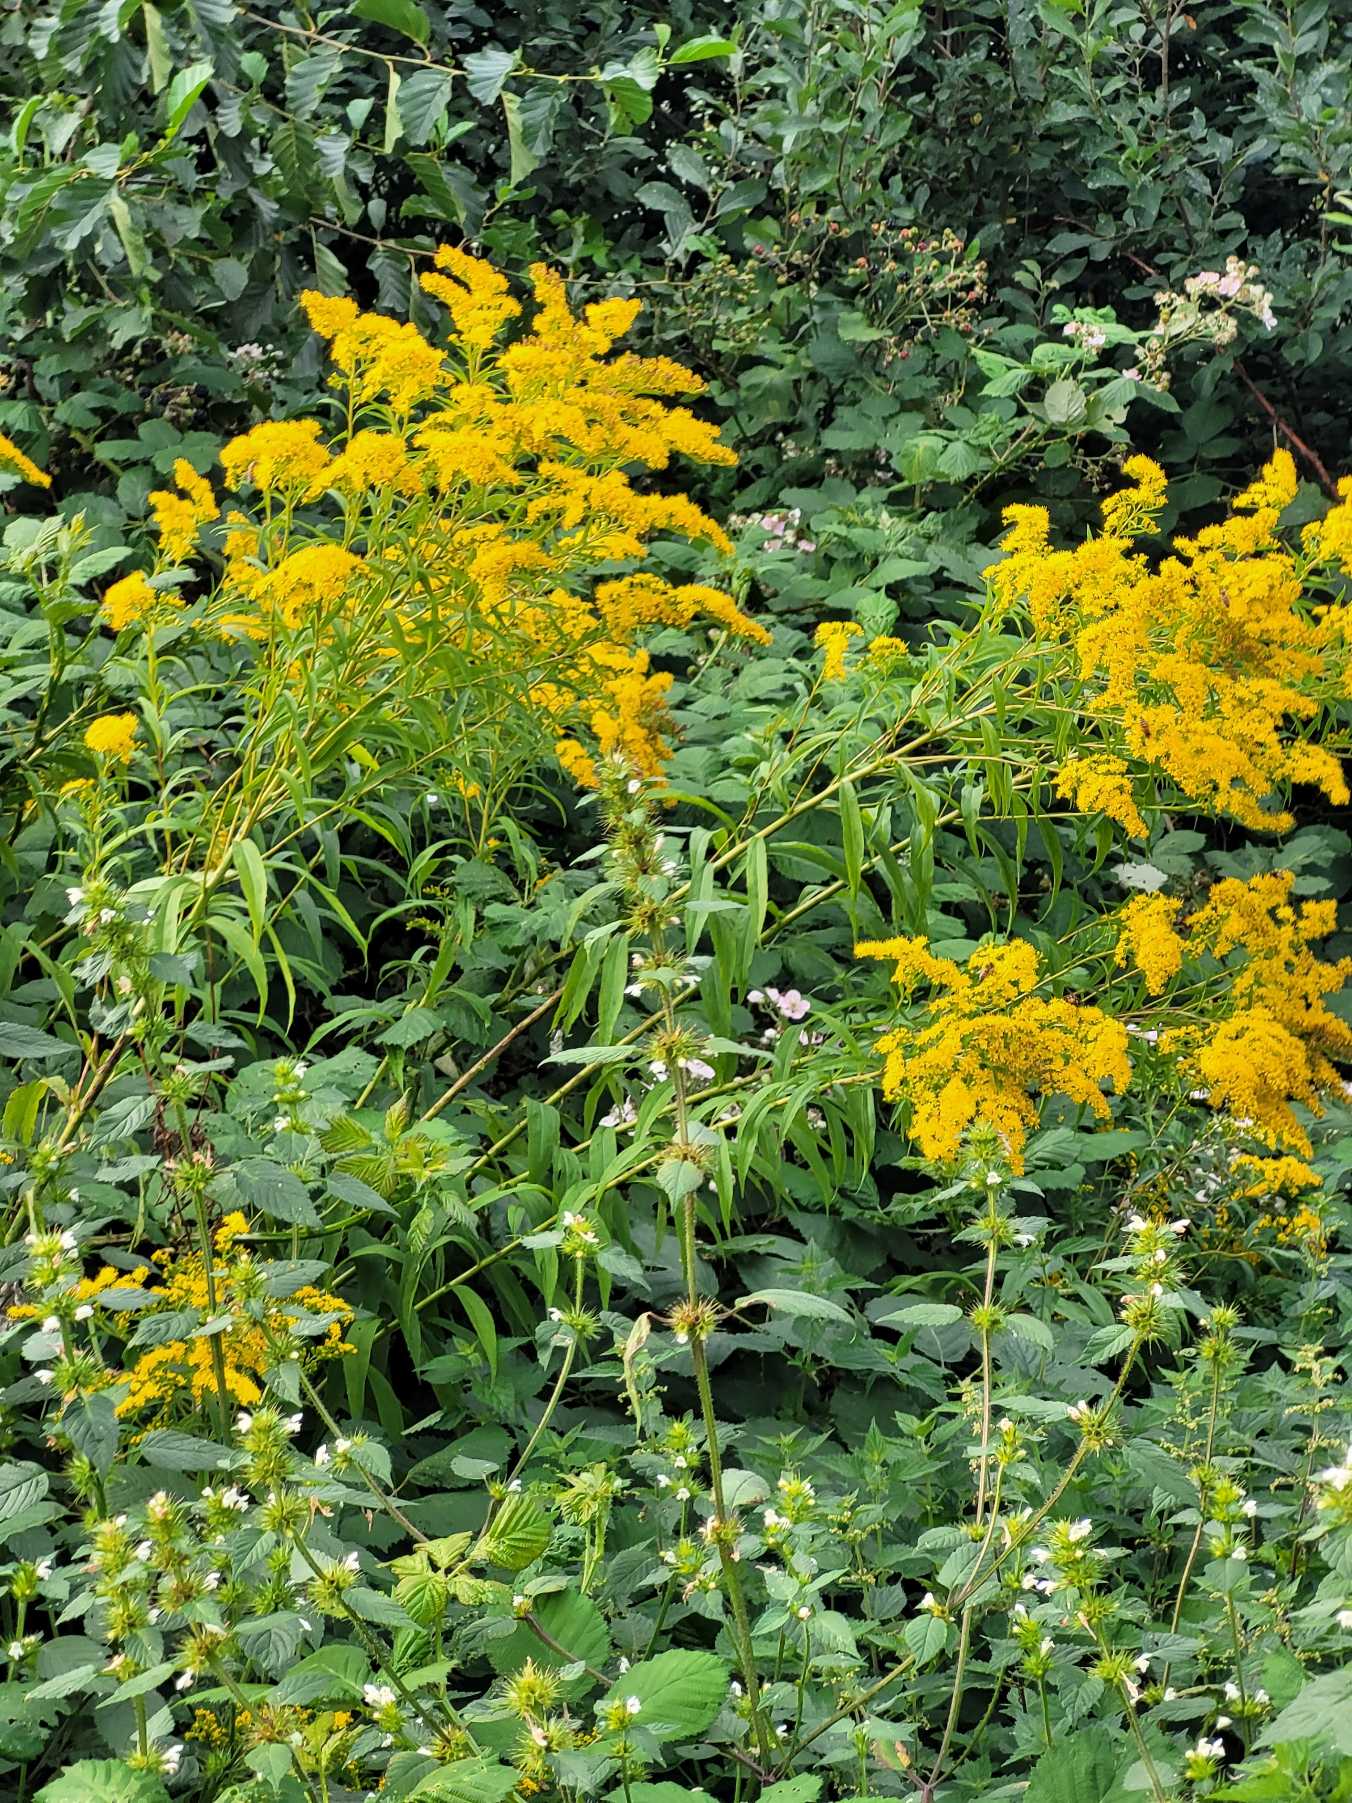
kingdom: Plantae
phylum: Tracheophyta
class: Magnoliopsida
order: Asterales
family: Asteraceae
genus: Solidago
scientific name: Solidago gigantea
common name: Sildig gyldenris
